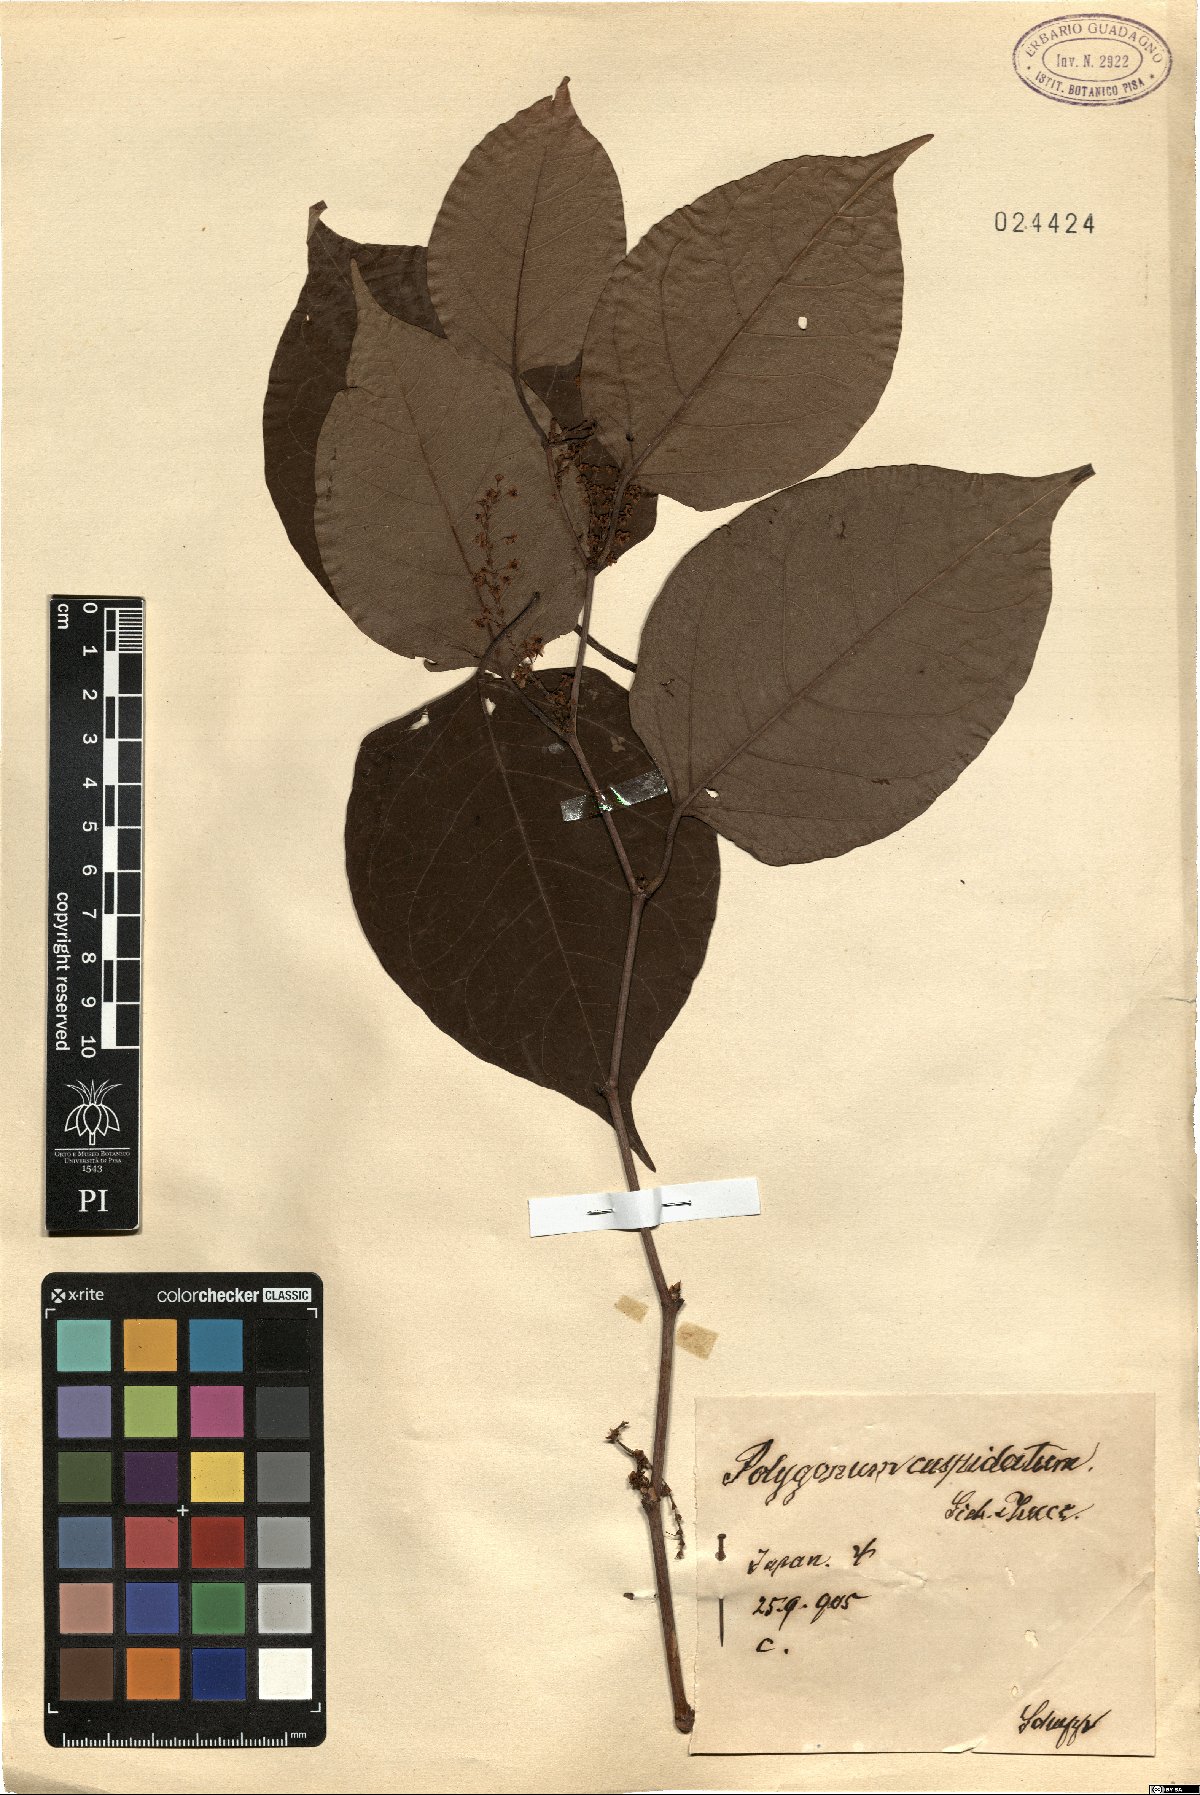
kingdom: Plantae
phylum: Tracheophyta
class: Magnoliopsida
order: Caryophyllales
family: Polygonaceae
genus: Reynoutria
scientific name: Reynoutria japonica
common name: Japanese knotweed
